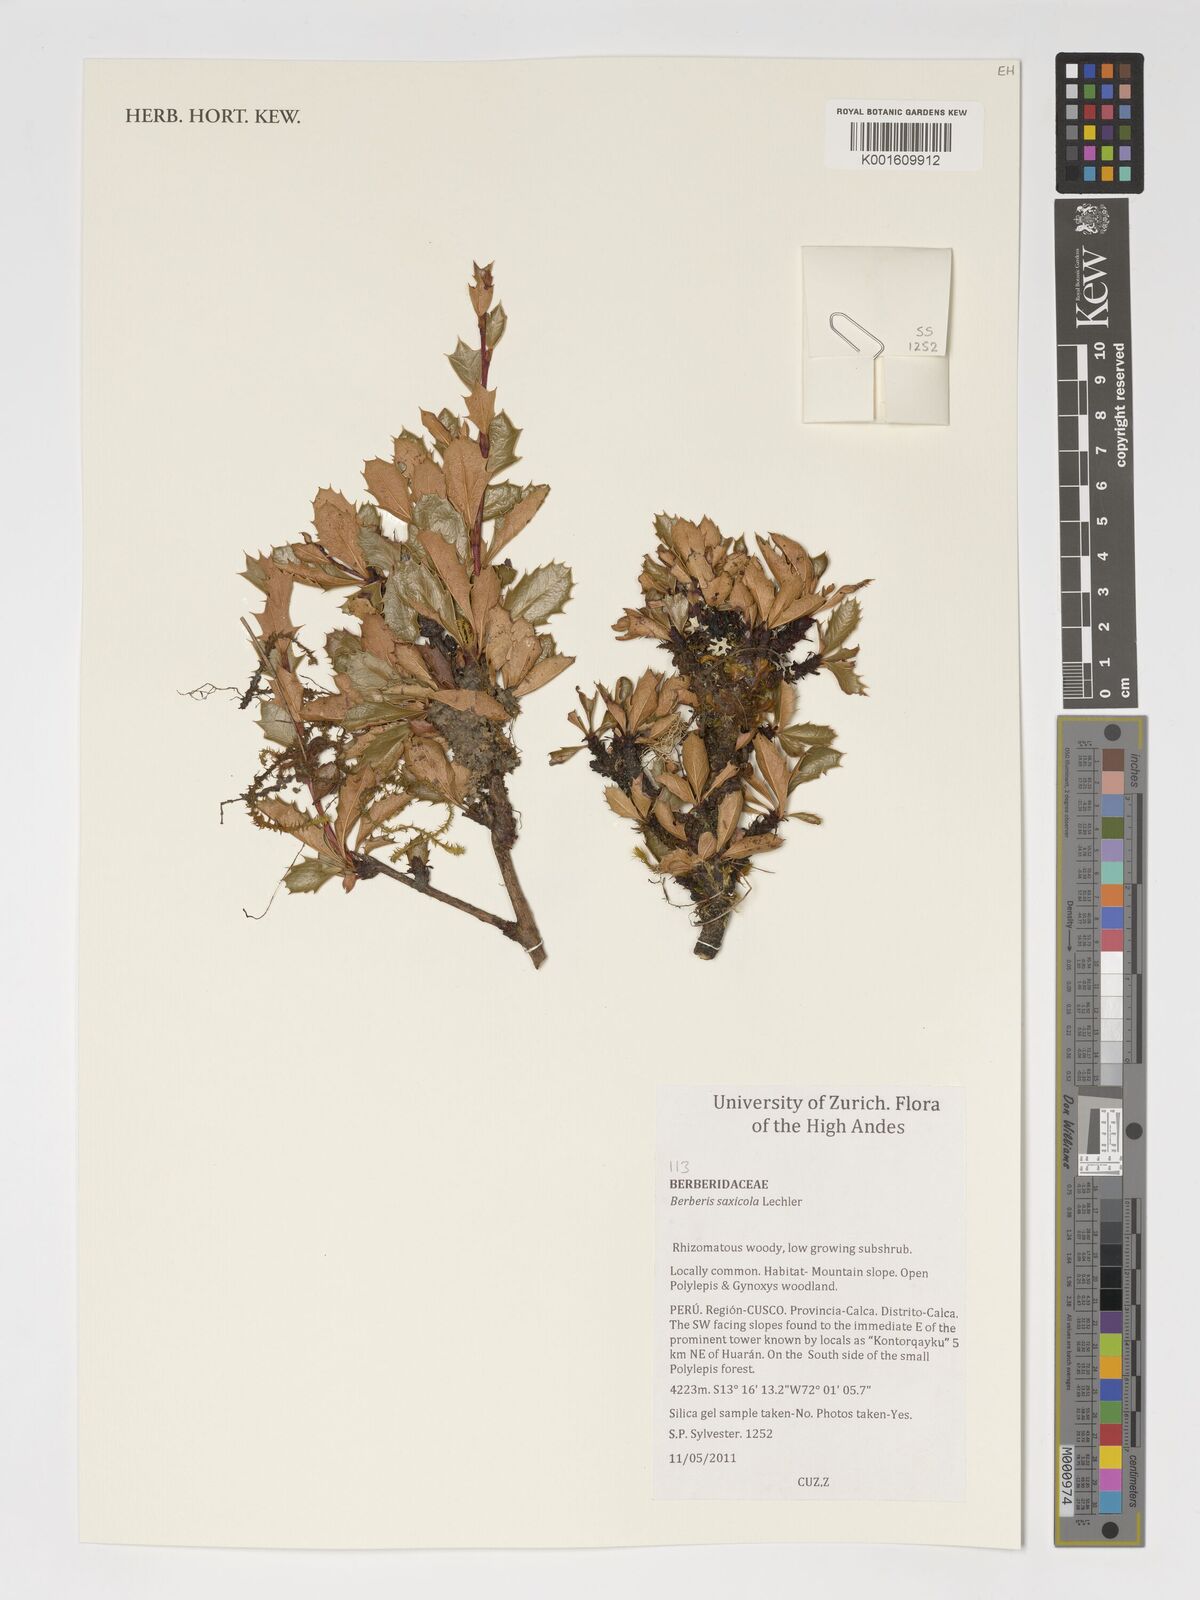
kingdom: Plantae
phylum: Tracheophyta
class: Magnoliopsida
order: Ranunculales
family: Berberidaceae
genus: Berberis
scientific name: Berberis saxicola
